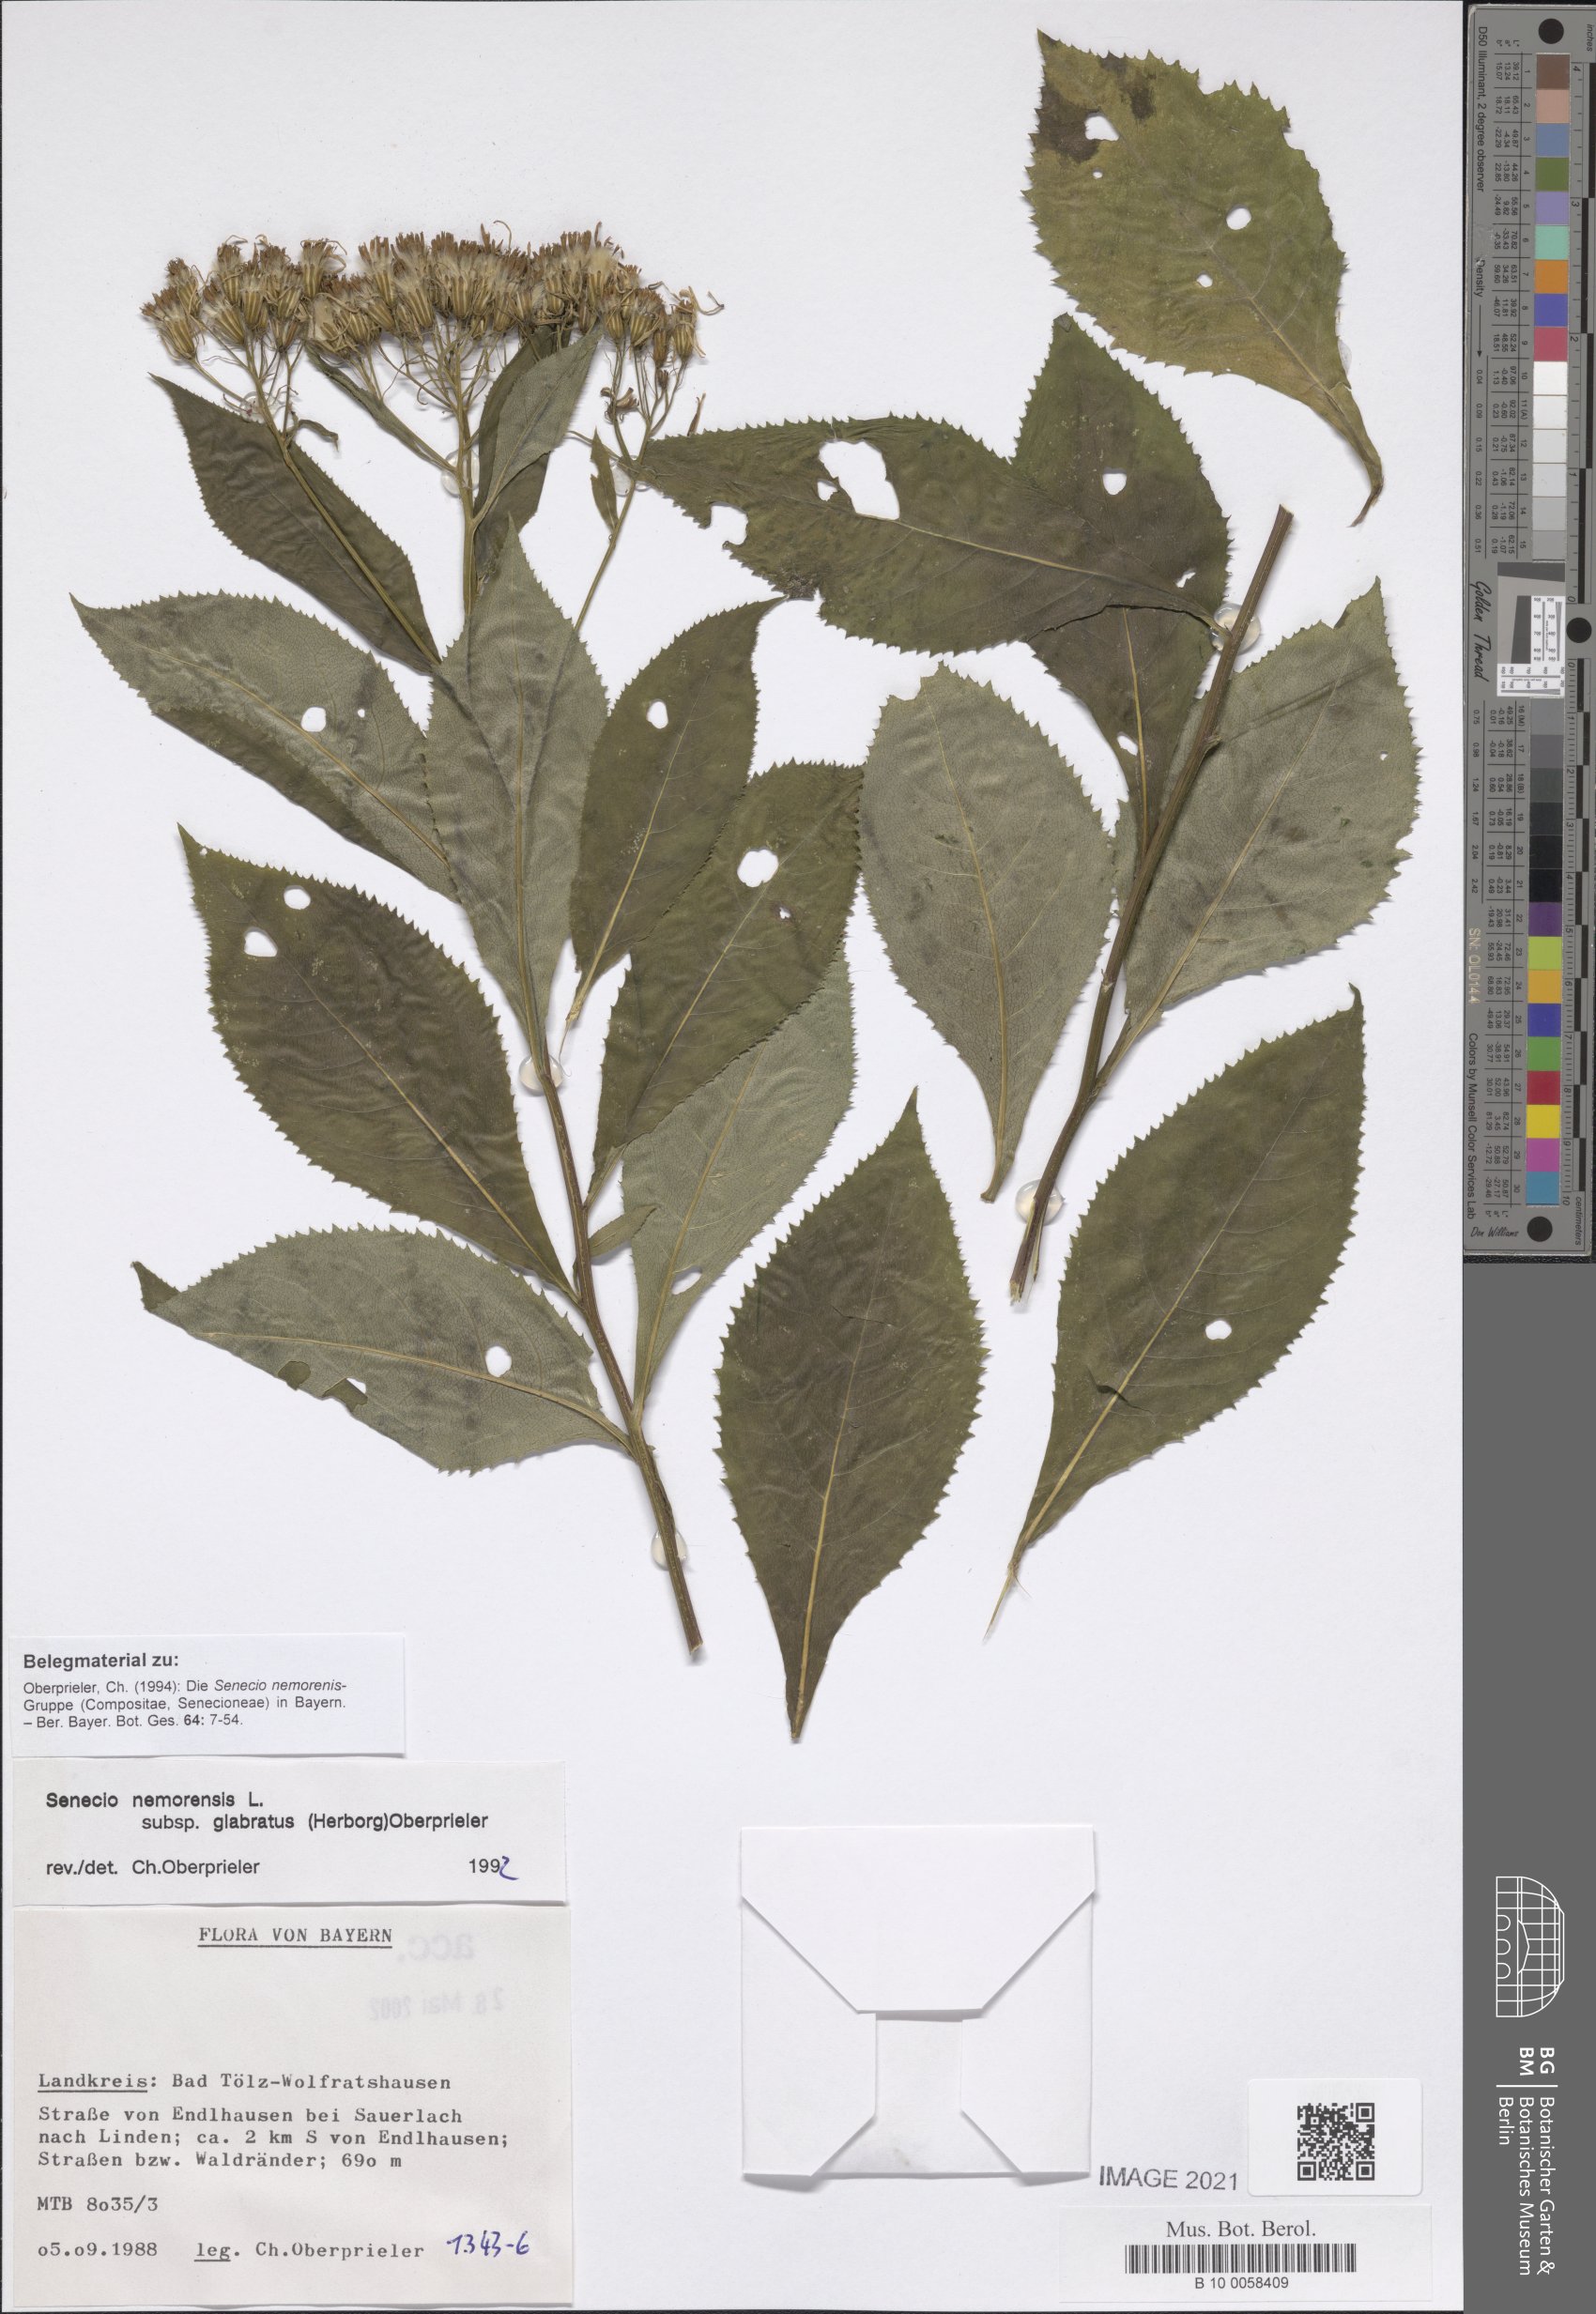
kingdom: Plantae
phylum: Tracheophyta
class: Magnoliopsida
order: Asterales
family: Asteraceae
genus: Senecio
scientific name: Senecio germanicus
